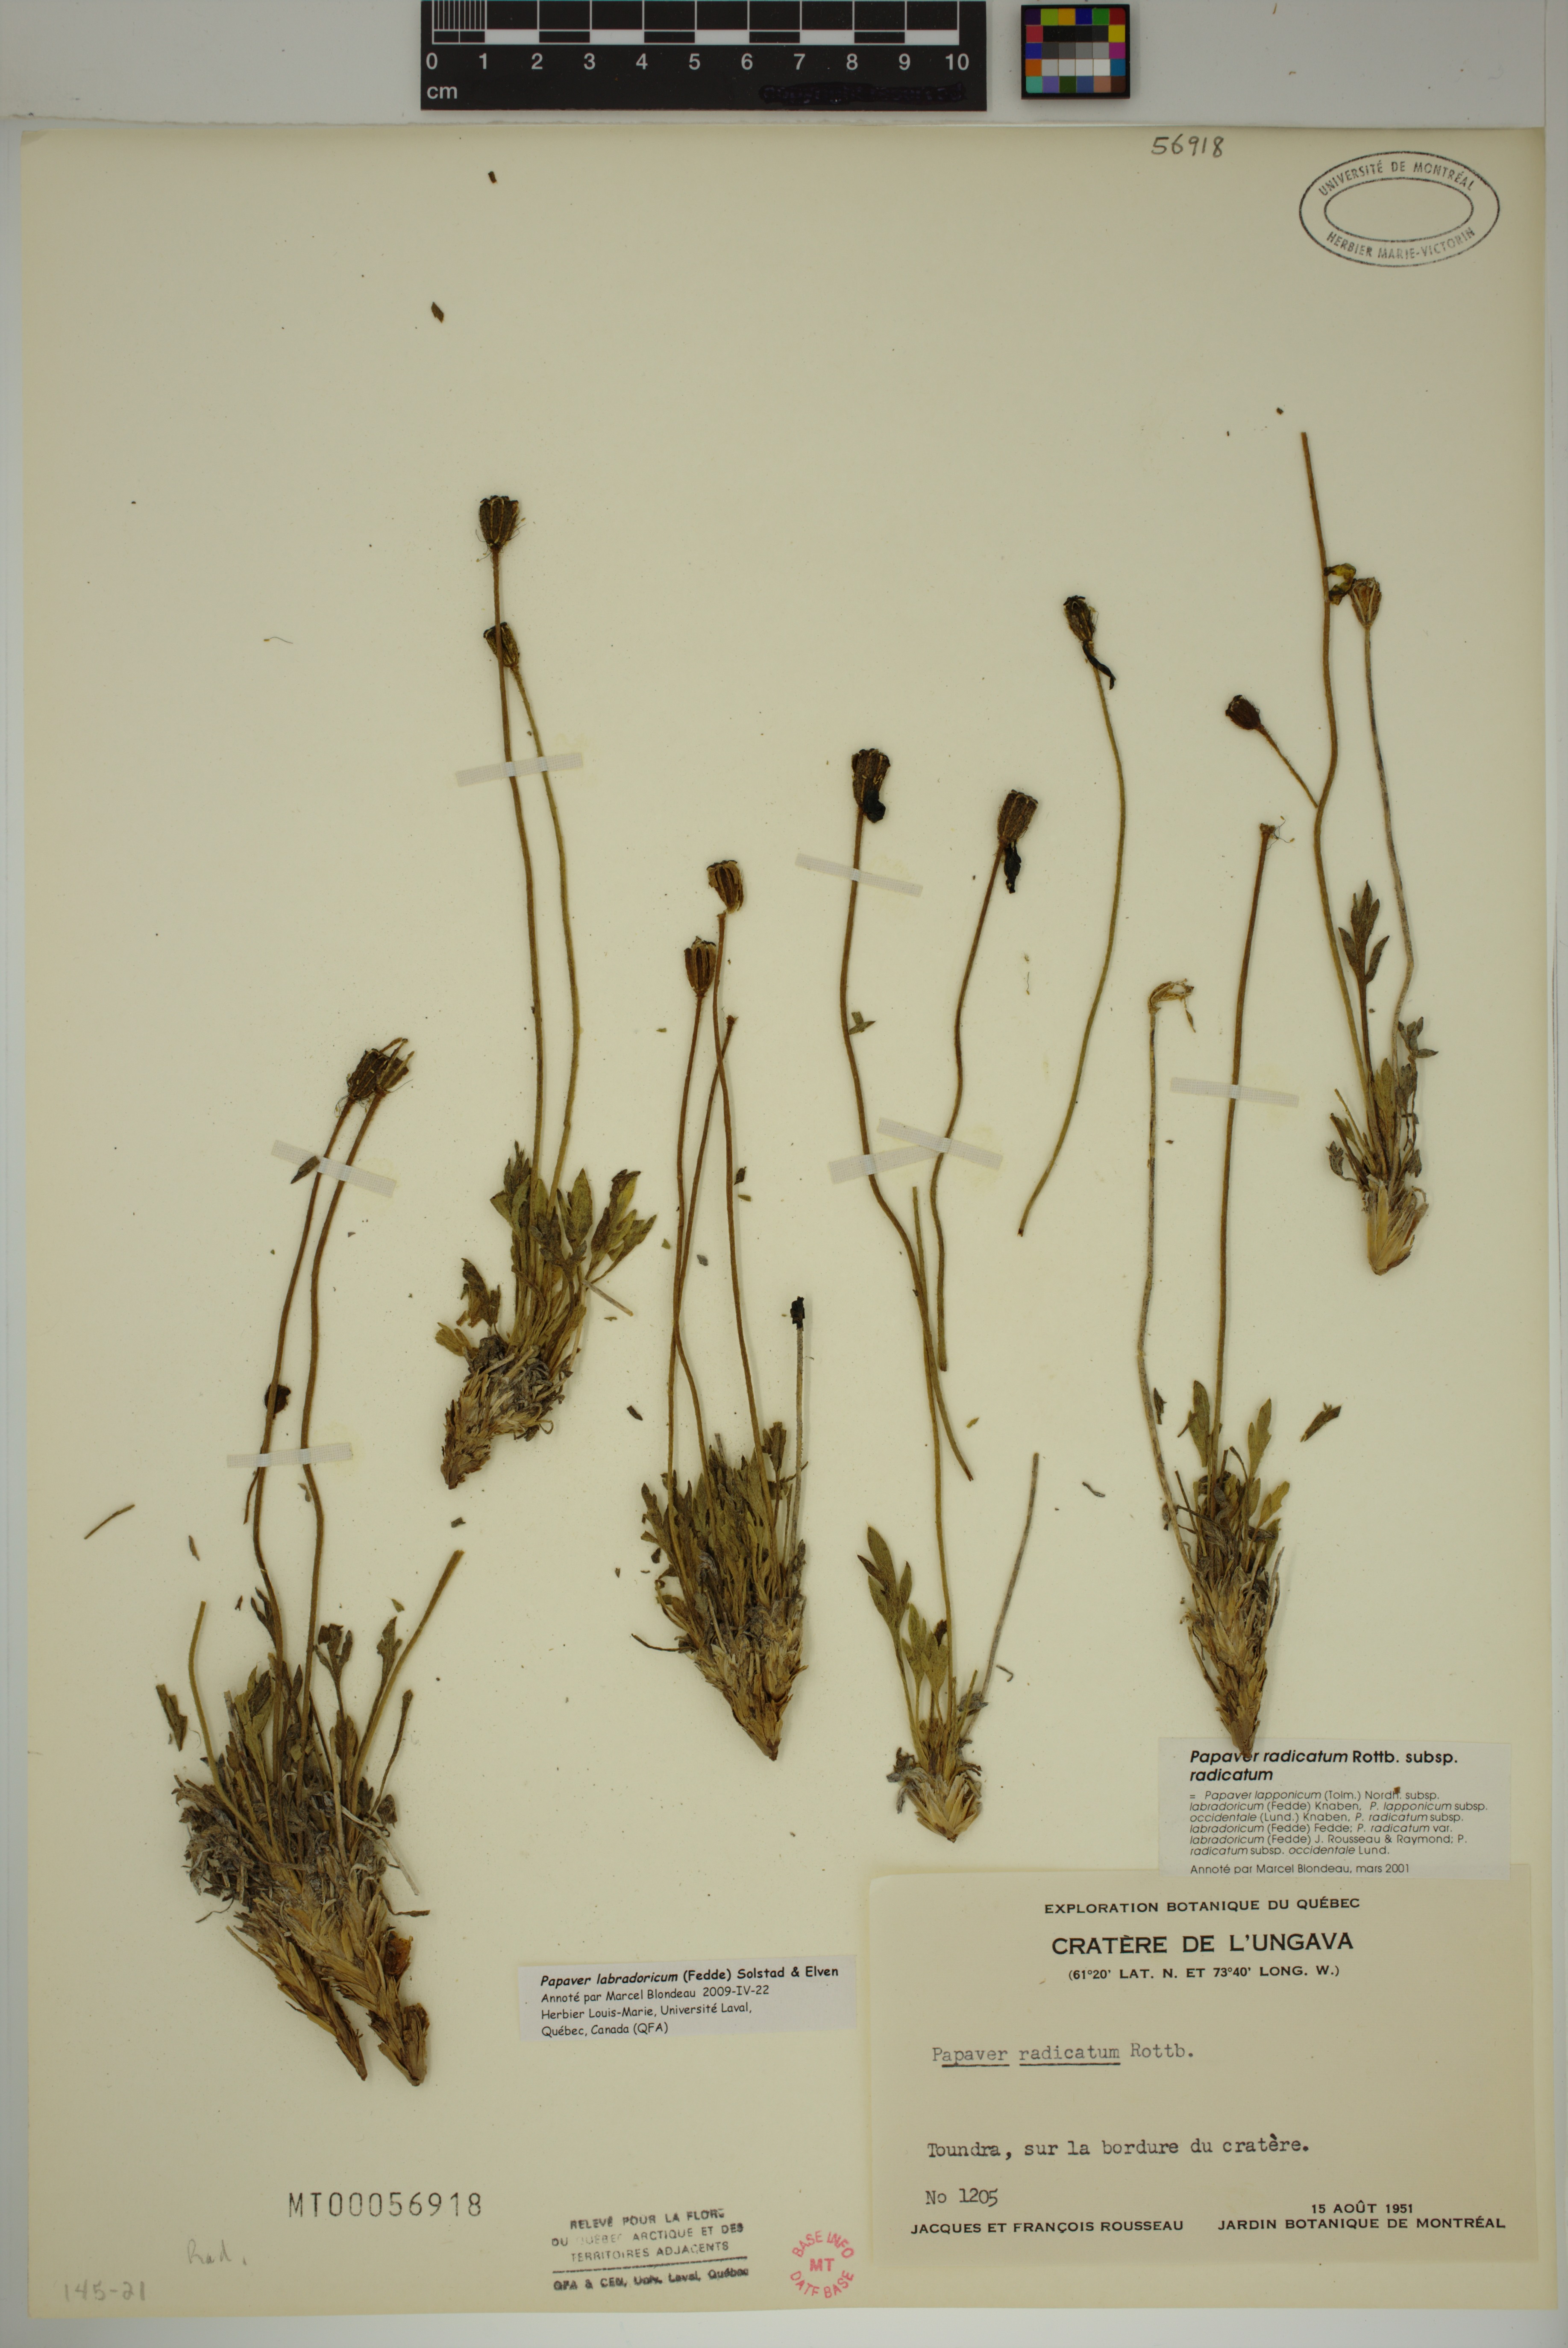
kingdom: Plantae
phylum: Tracheophyta
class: Magnoliopsida
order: Ranunculales
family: Papaveraceae
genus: Papaver
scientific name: Papaver radicatum
